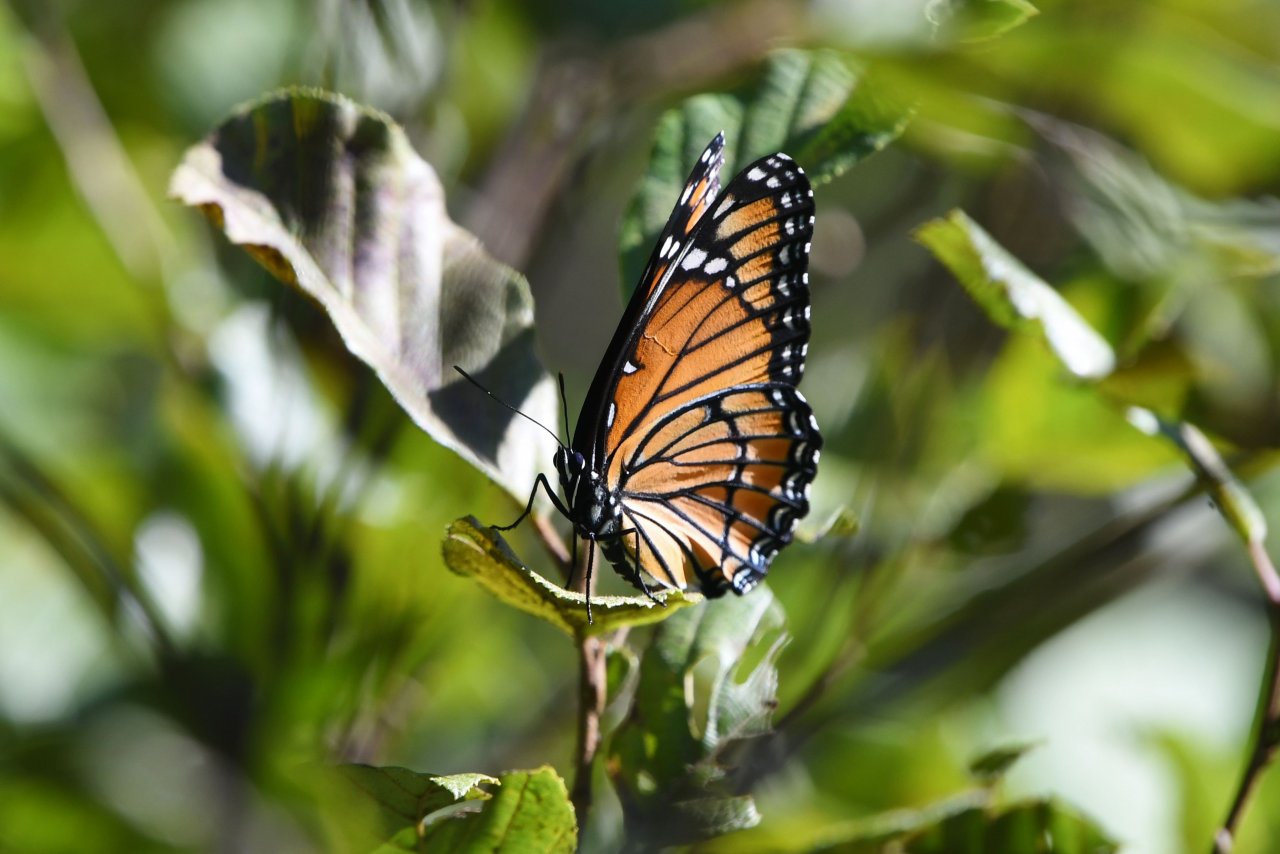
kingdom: Animalia
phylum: Arthropoda
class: Insecta
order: Lepidoptera
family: Nymphalidae
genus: Limenitis
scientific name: Limenitis archippus
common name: Viceroy
